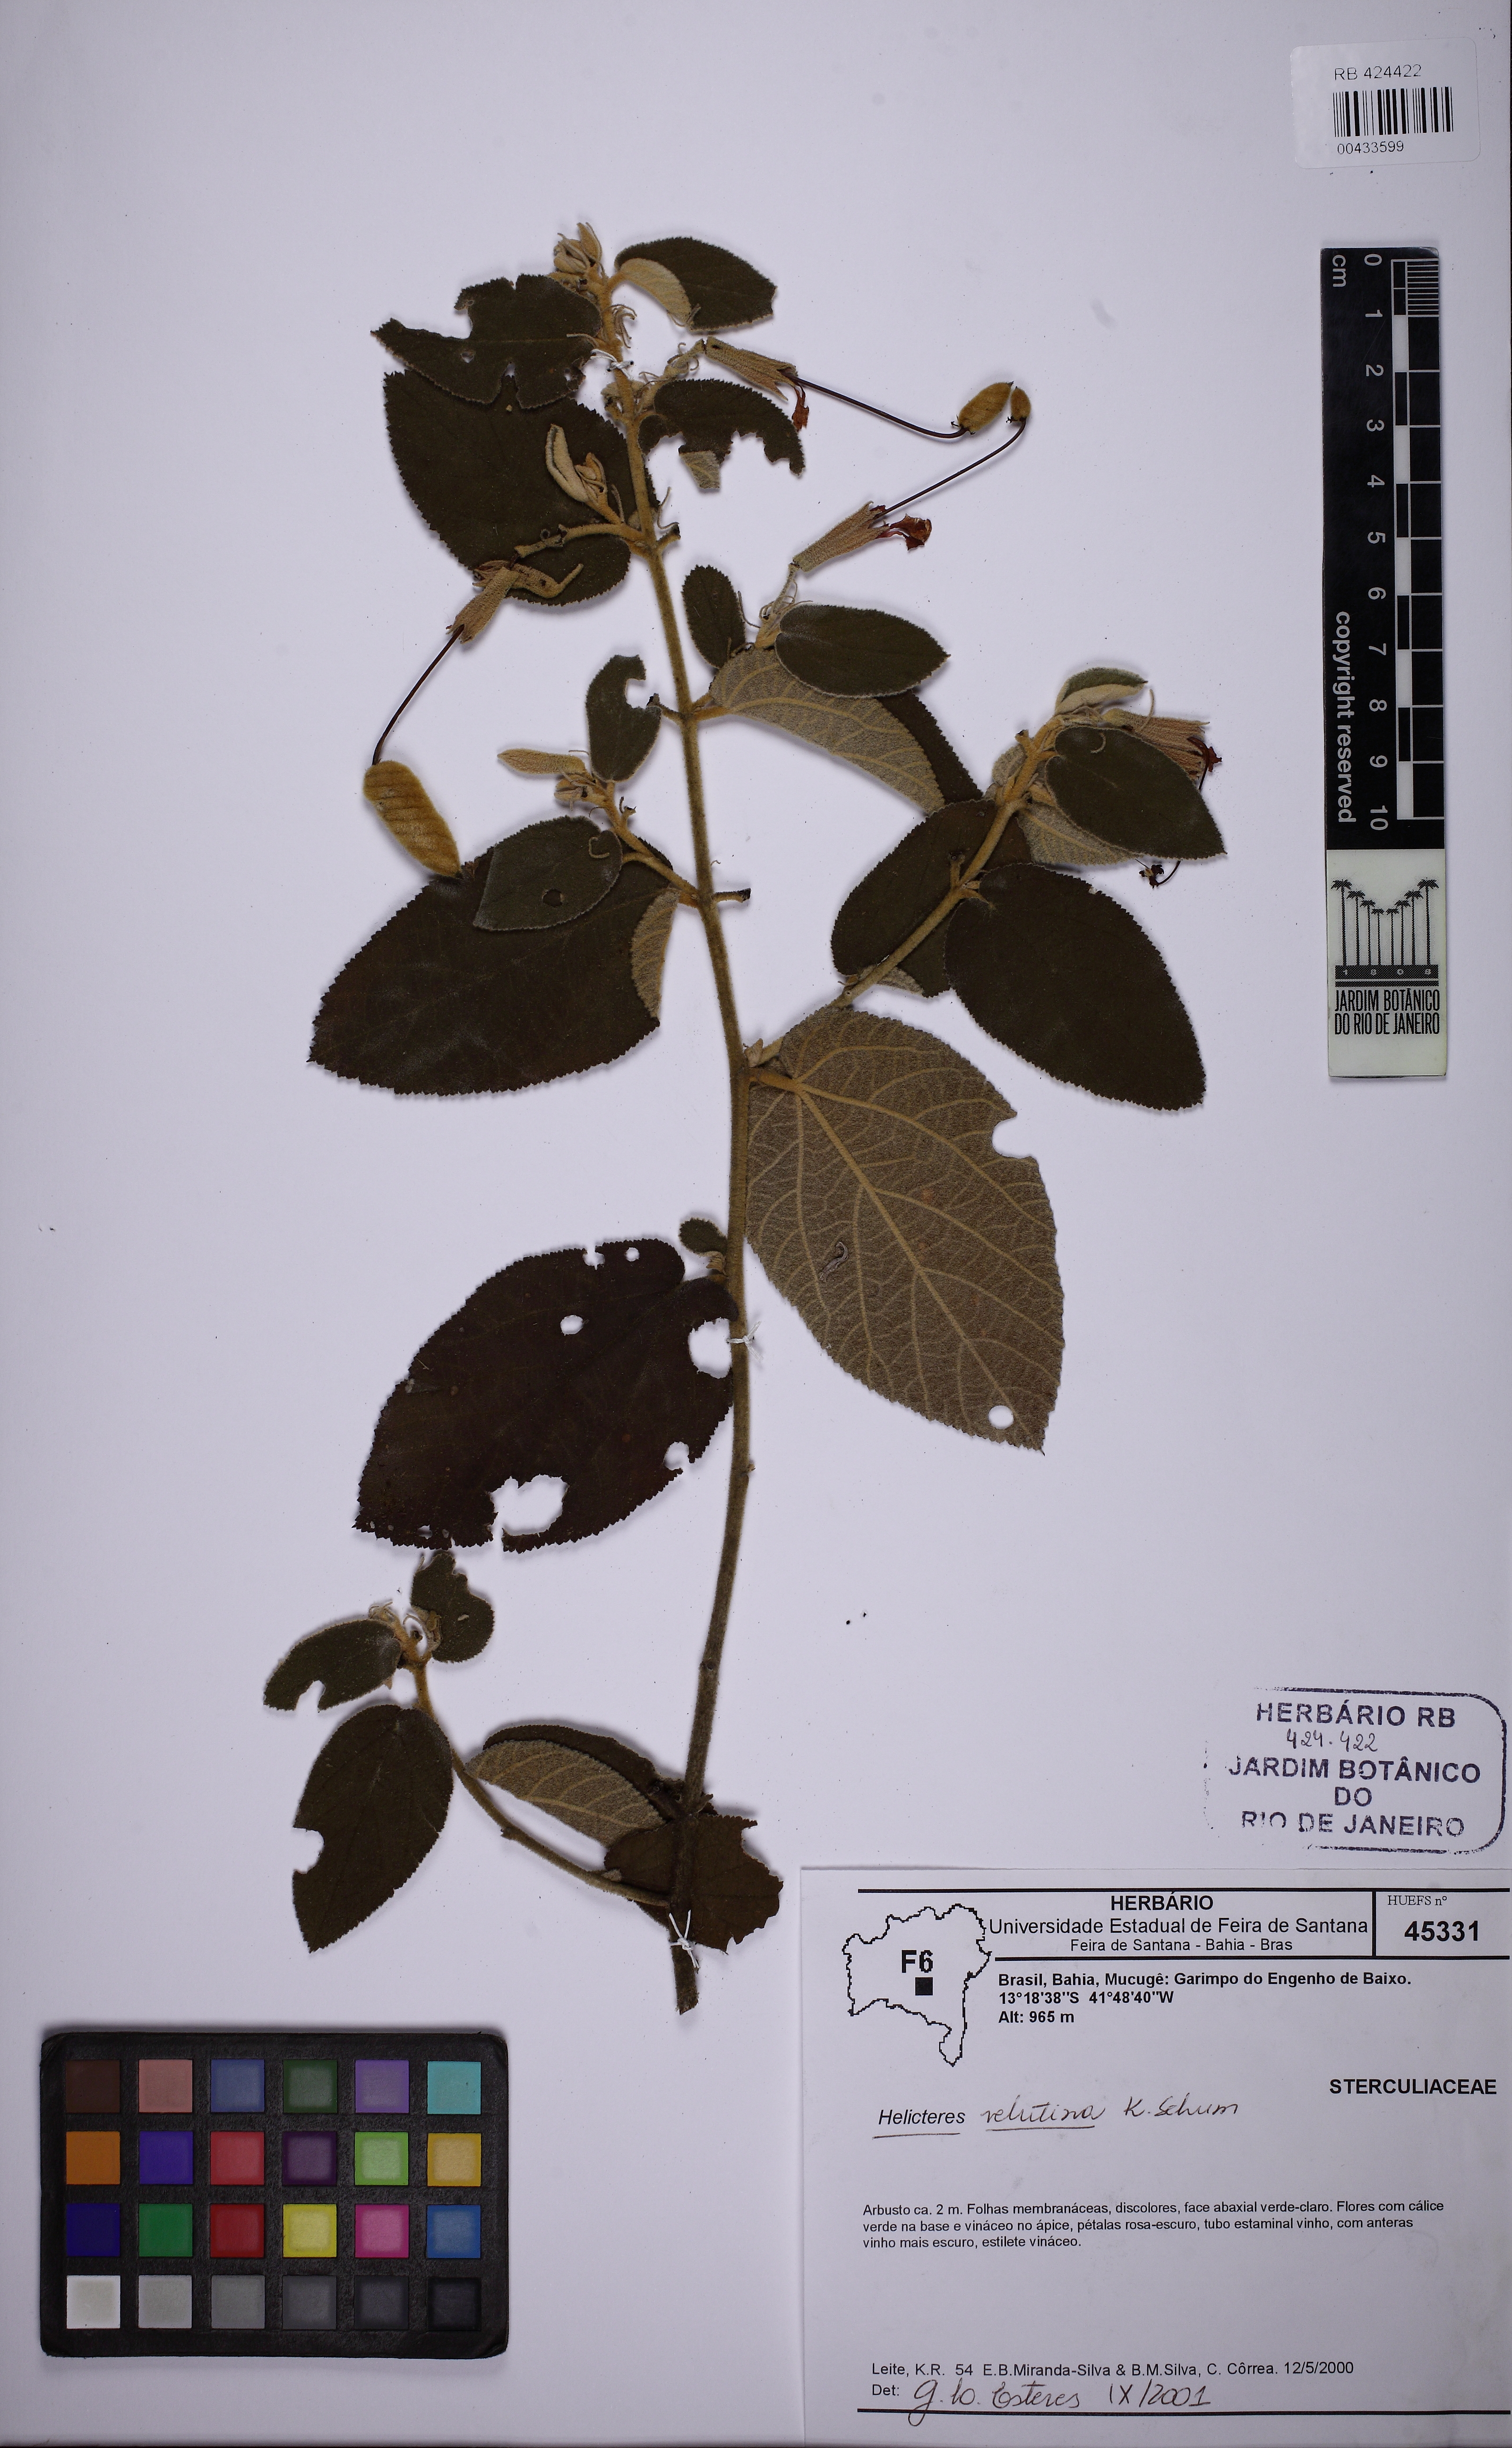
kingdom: Plantae
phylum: Tracheophyta
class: Magnoliopsida
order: Malvales
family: Malvaceae
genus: Helicteres
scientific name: Helicteres velutina
